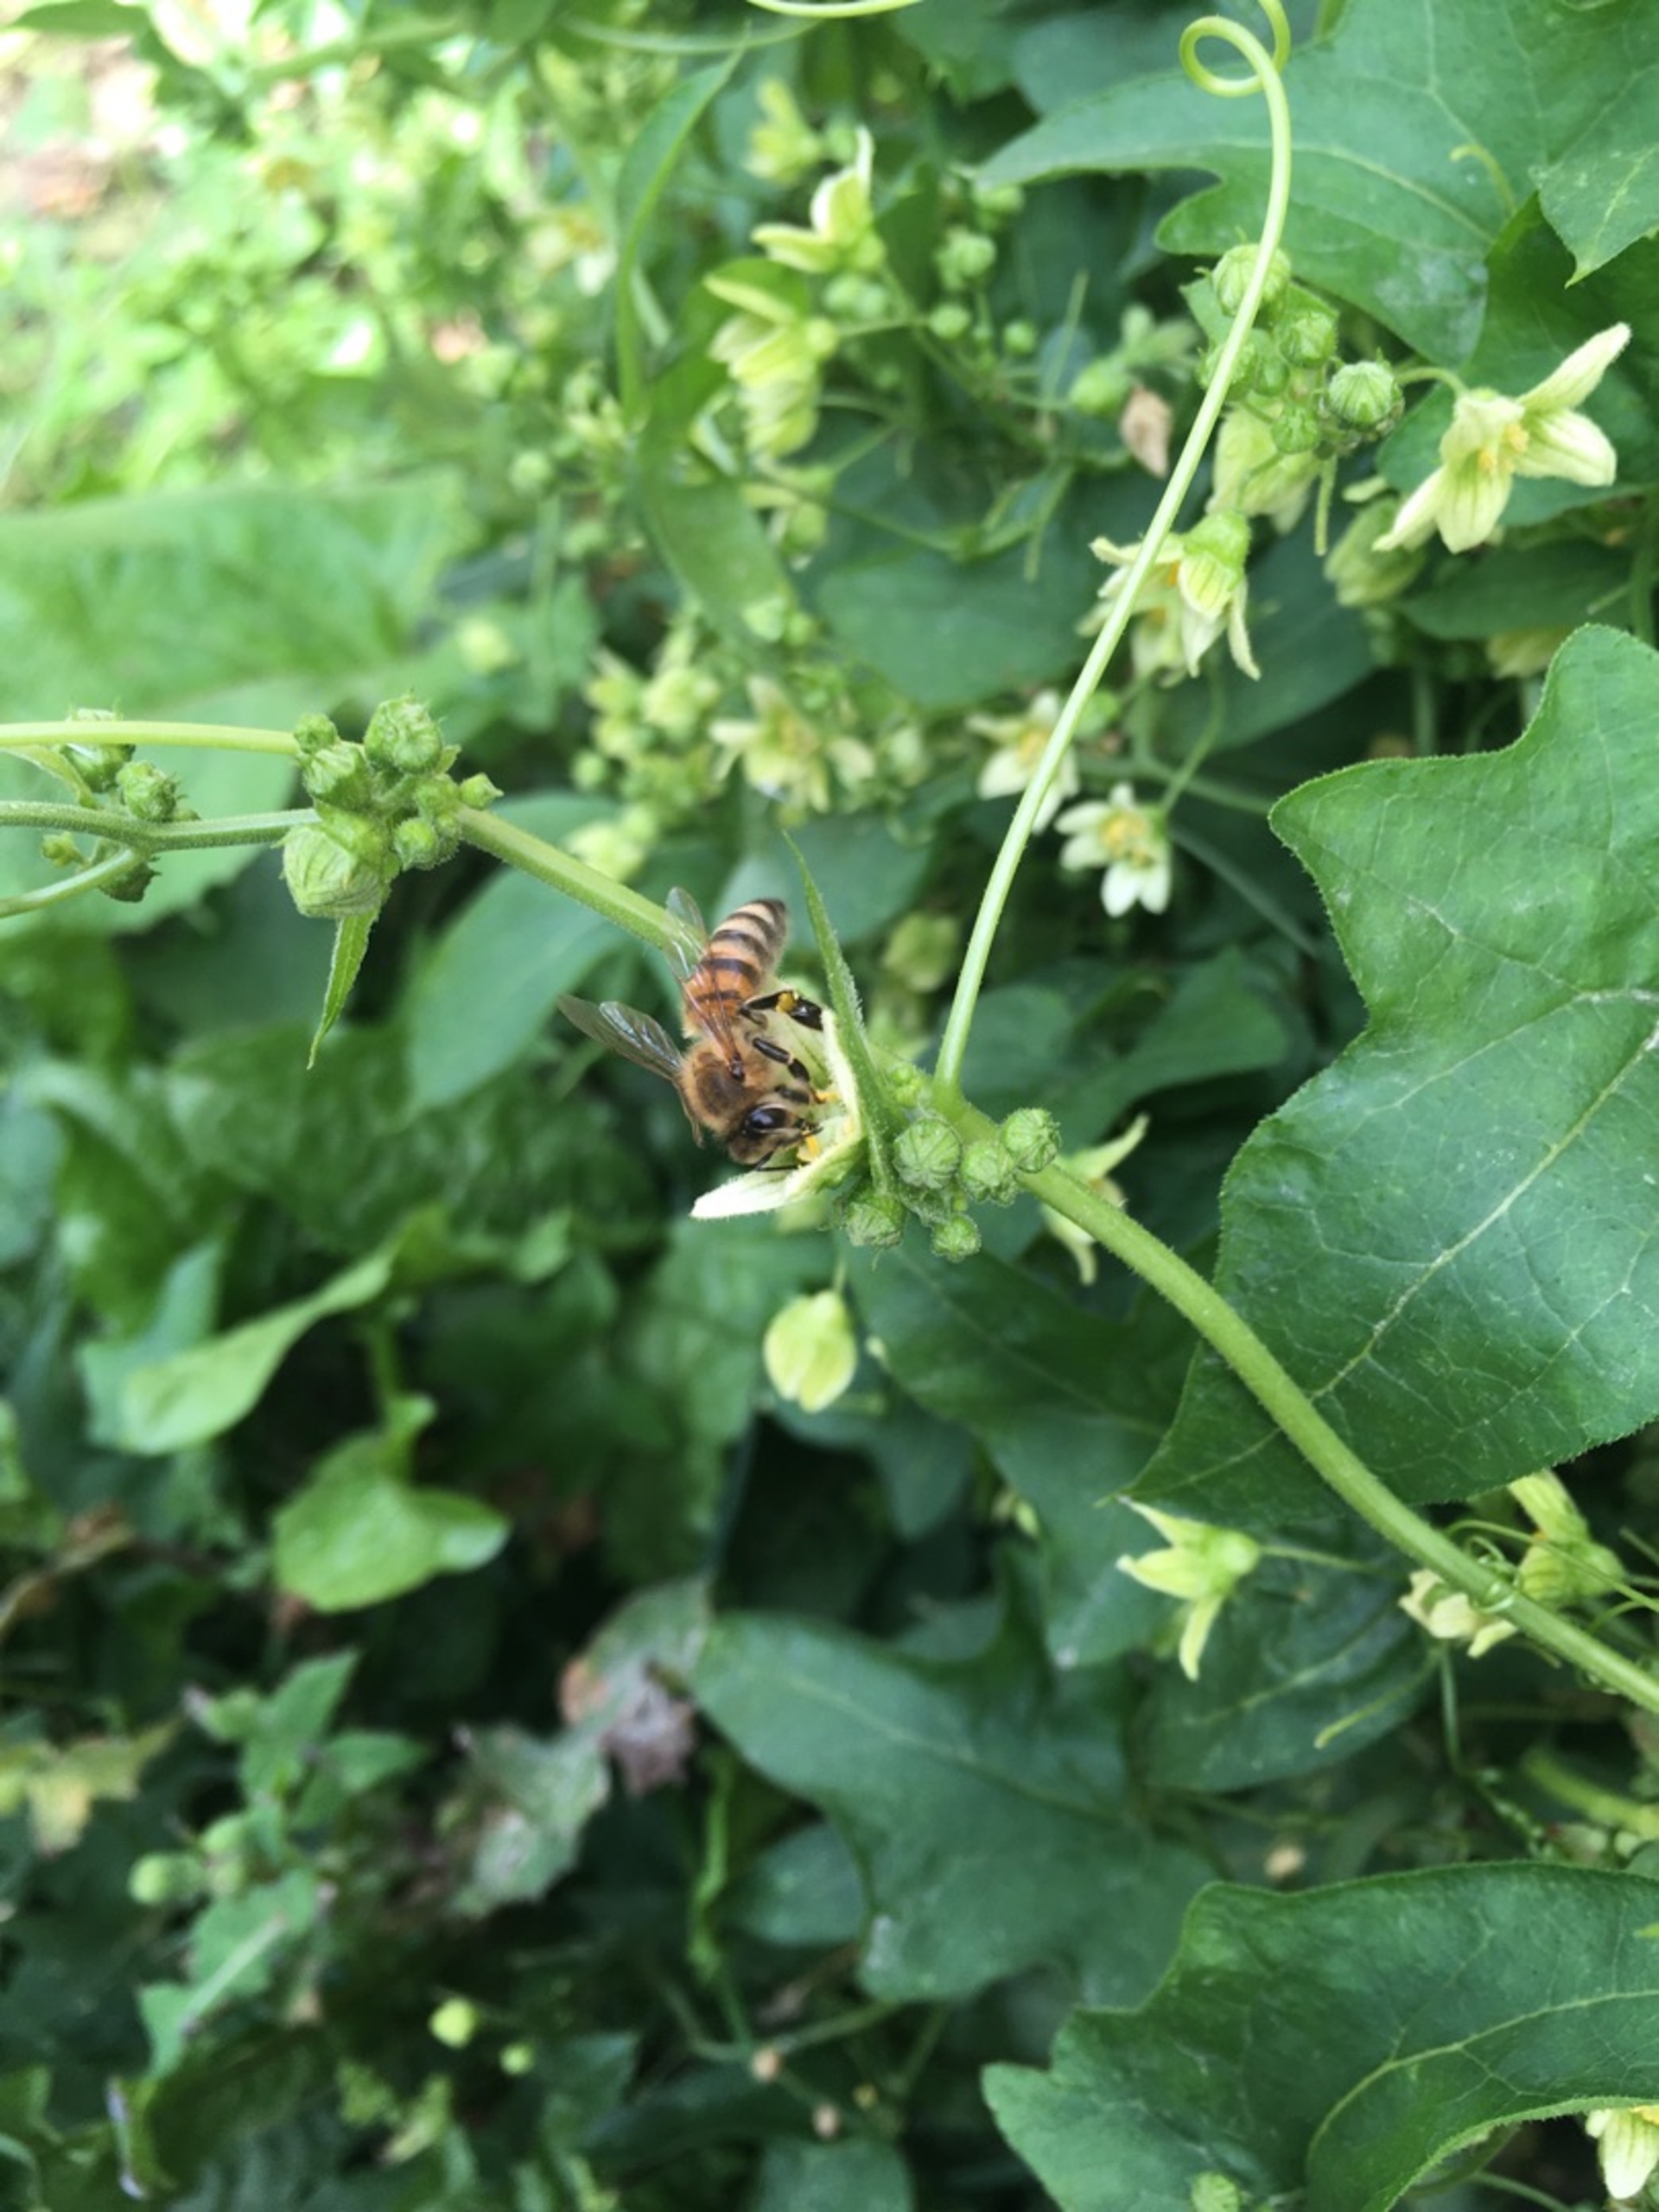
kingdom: Animalia
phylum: Arthropoda
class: Insecta
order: Hymenoptera
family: Apidae
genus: Apis
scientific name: Apis mellifera
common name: Honningbi
